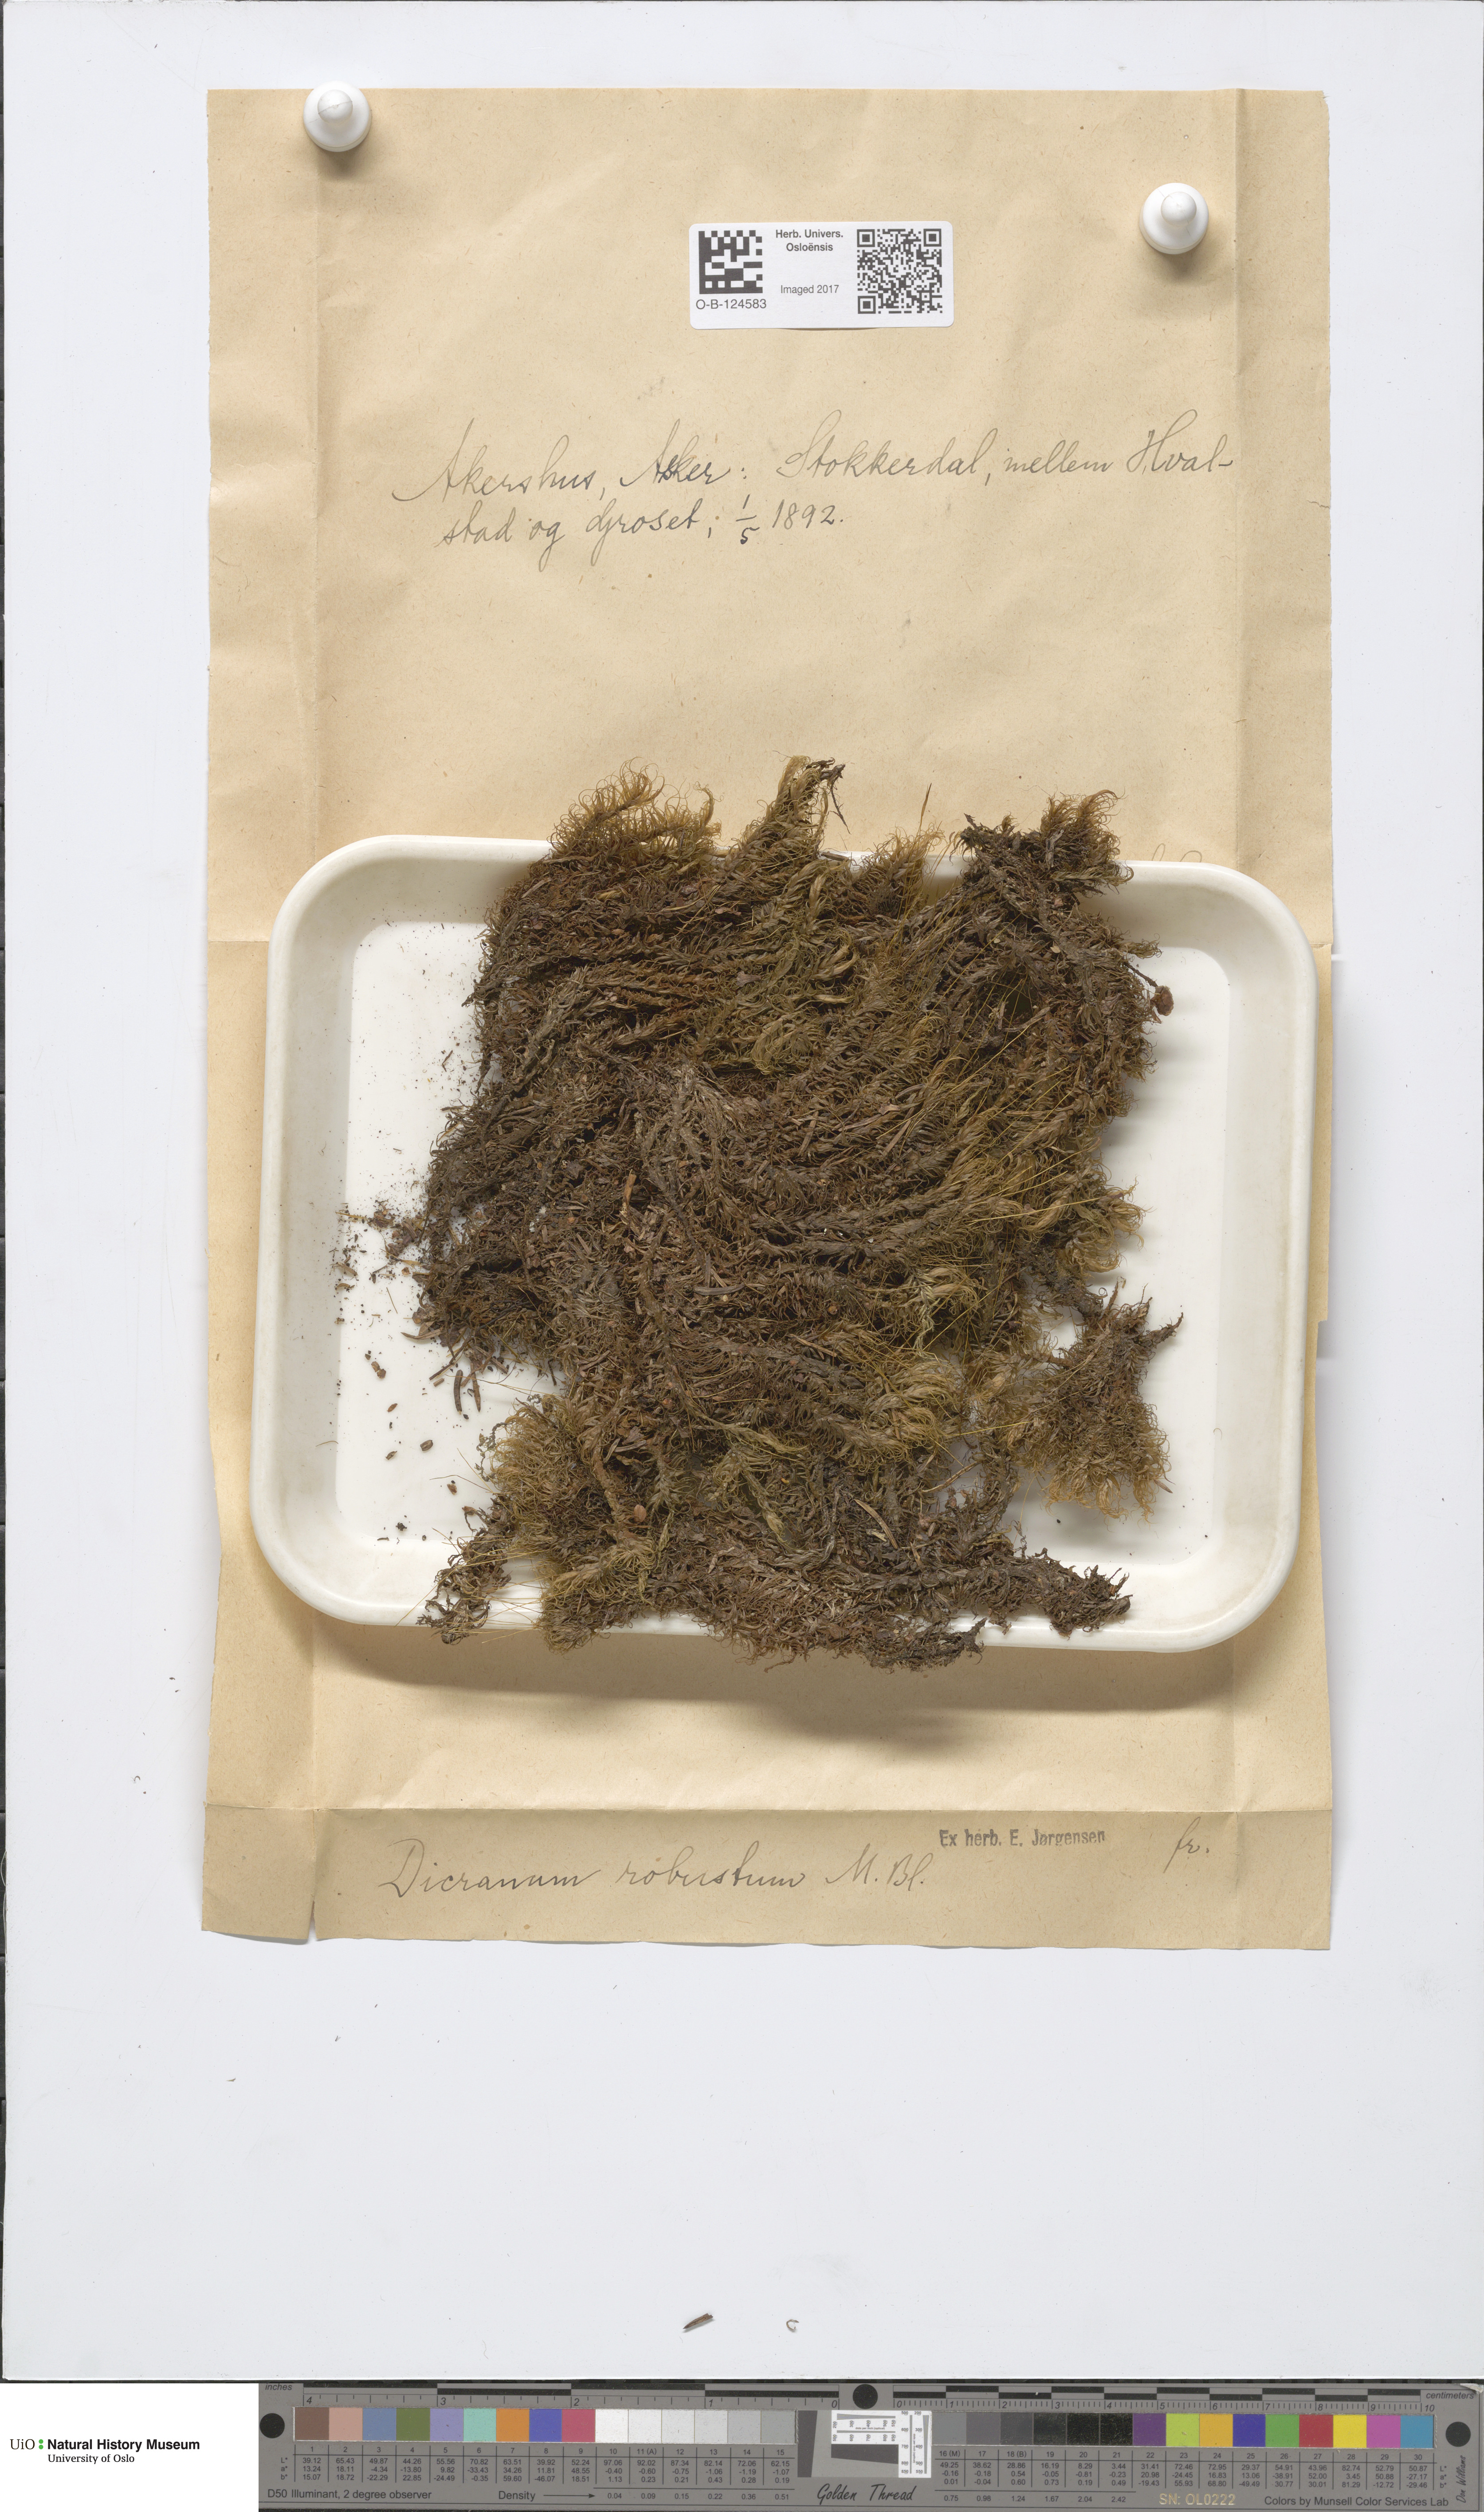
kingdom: Plantae
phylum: Bryophyta
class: Bryopsida
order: Dicranales
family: Dicranaceae
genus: Dicranum
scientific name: Dicranum drummondii
